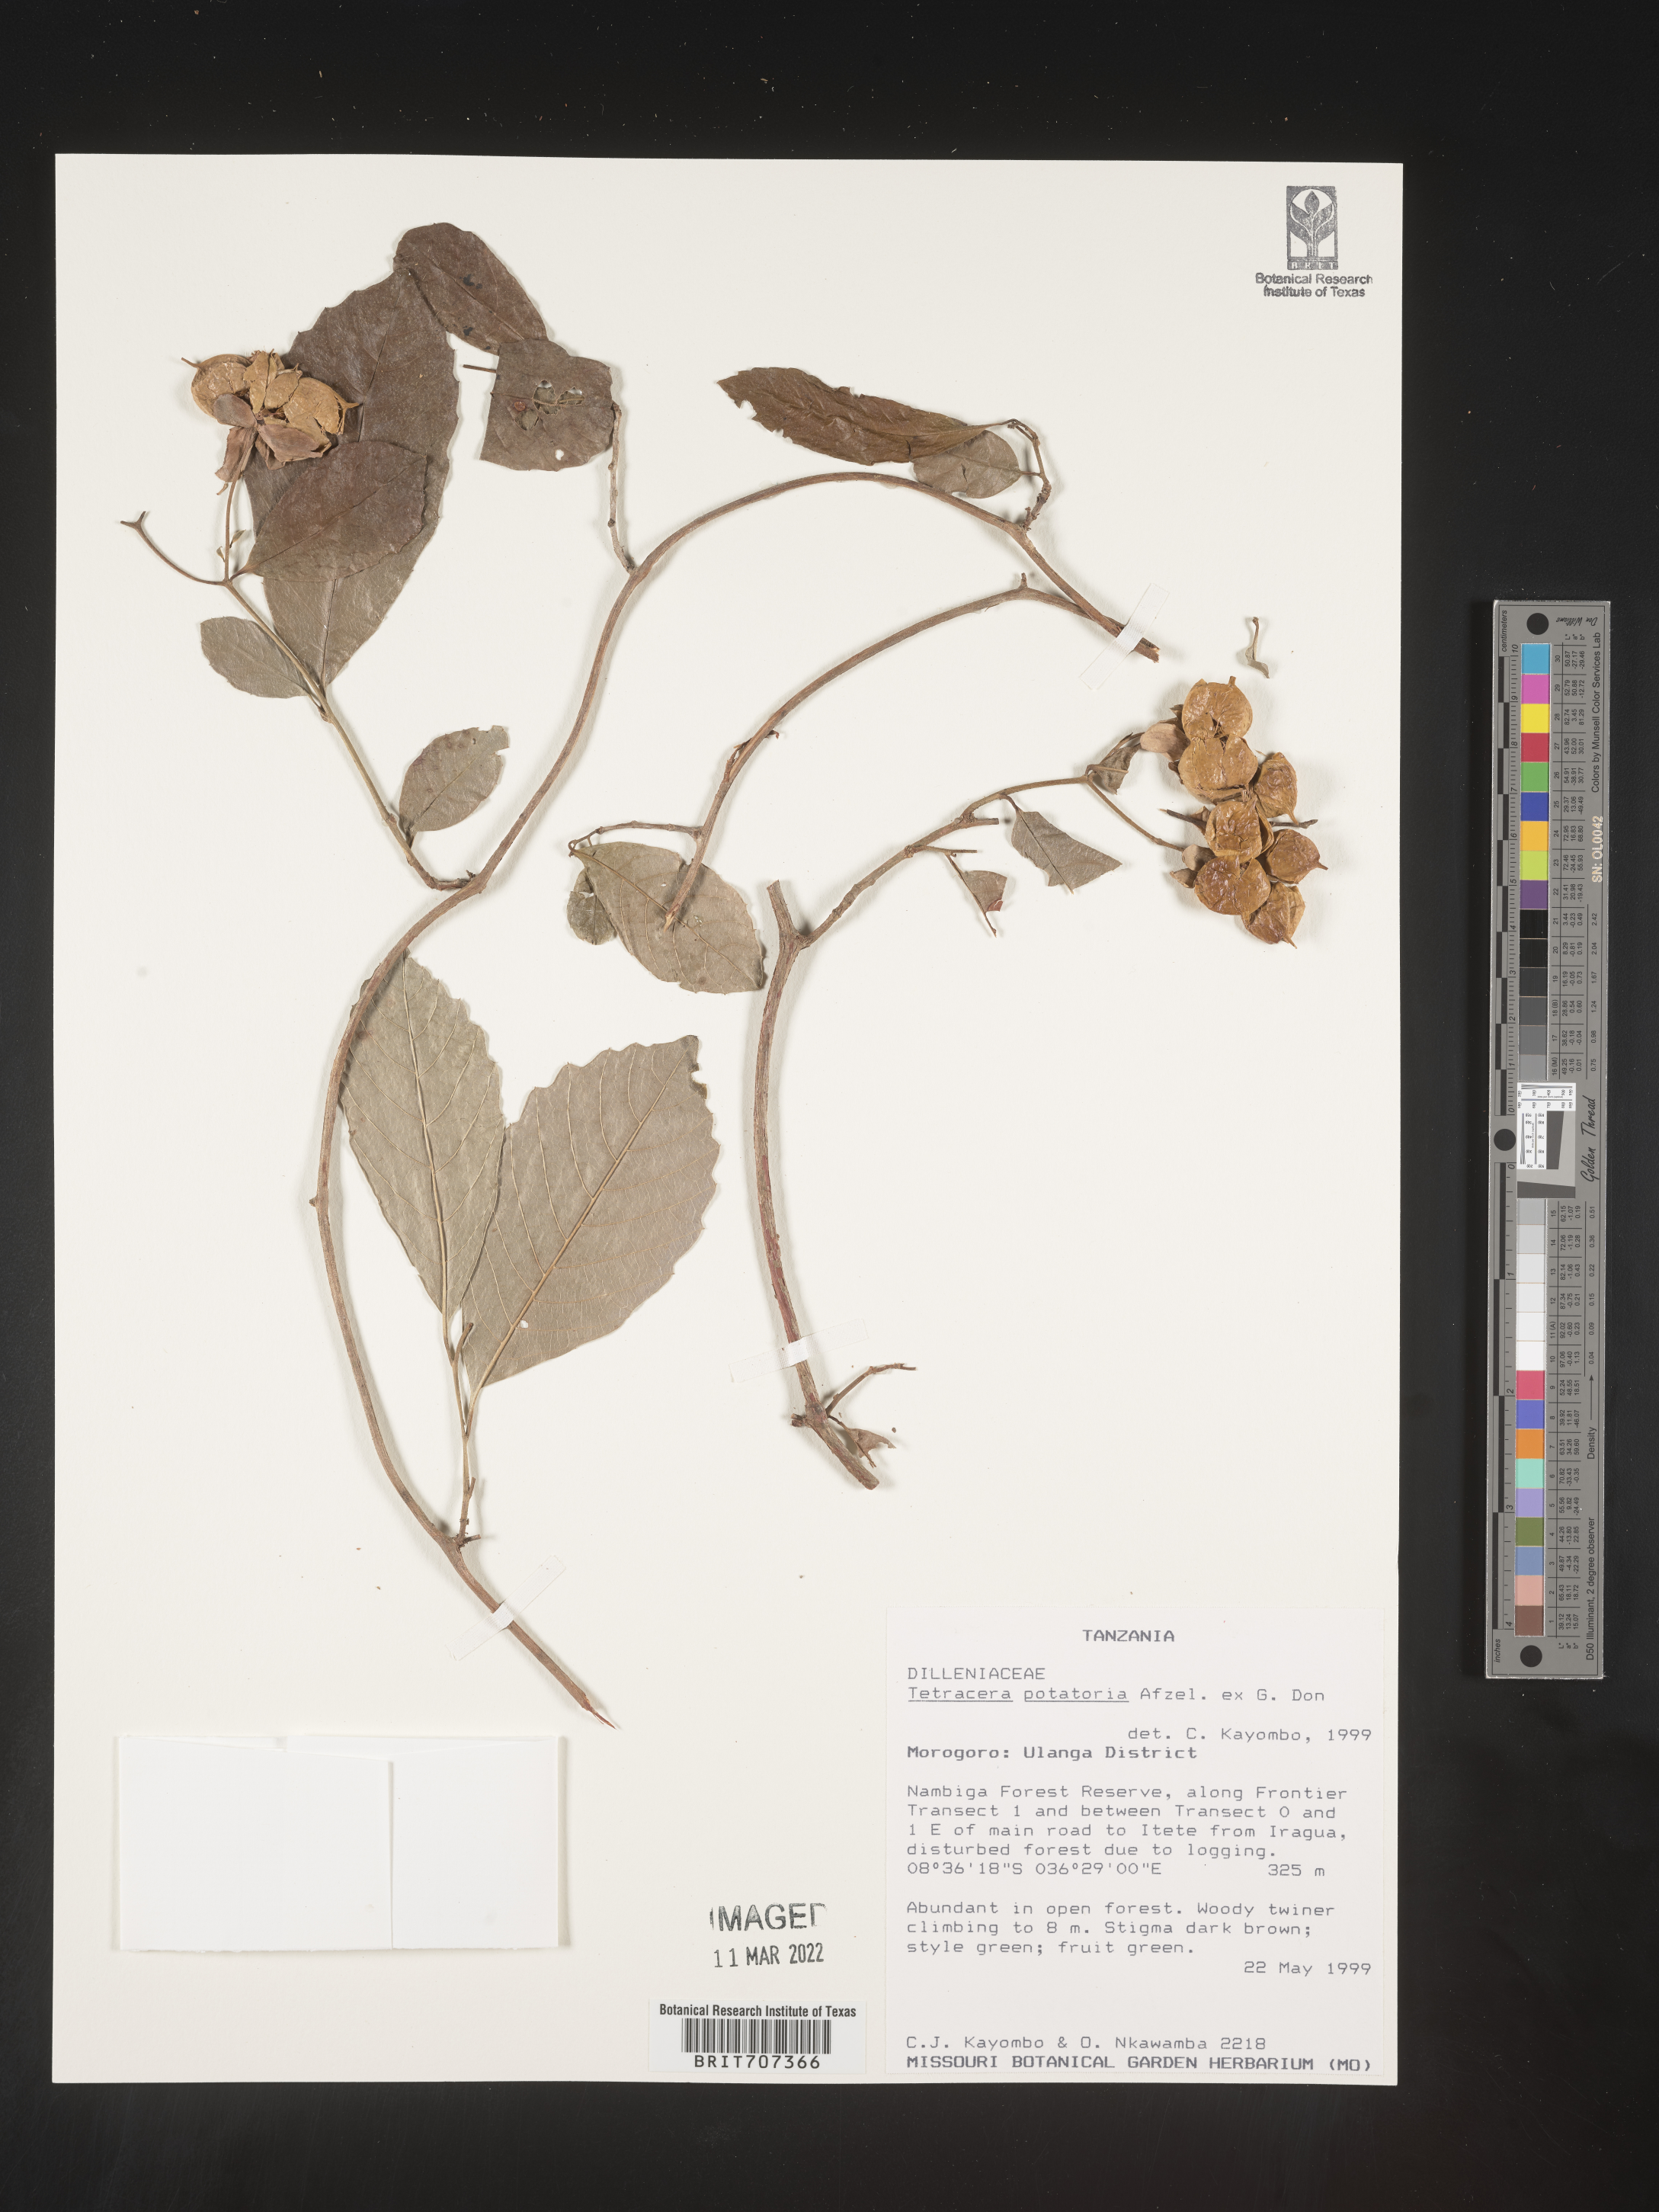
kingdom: Plantae
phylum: Tracheophyta
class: Magnoliopsida
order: Dilleniales
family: Dilleniaceae
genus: Tetracera
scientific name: Tetracera
